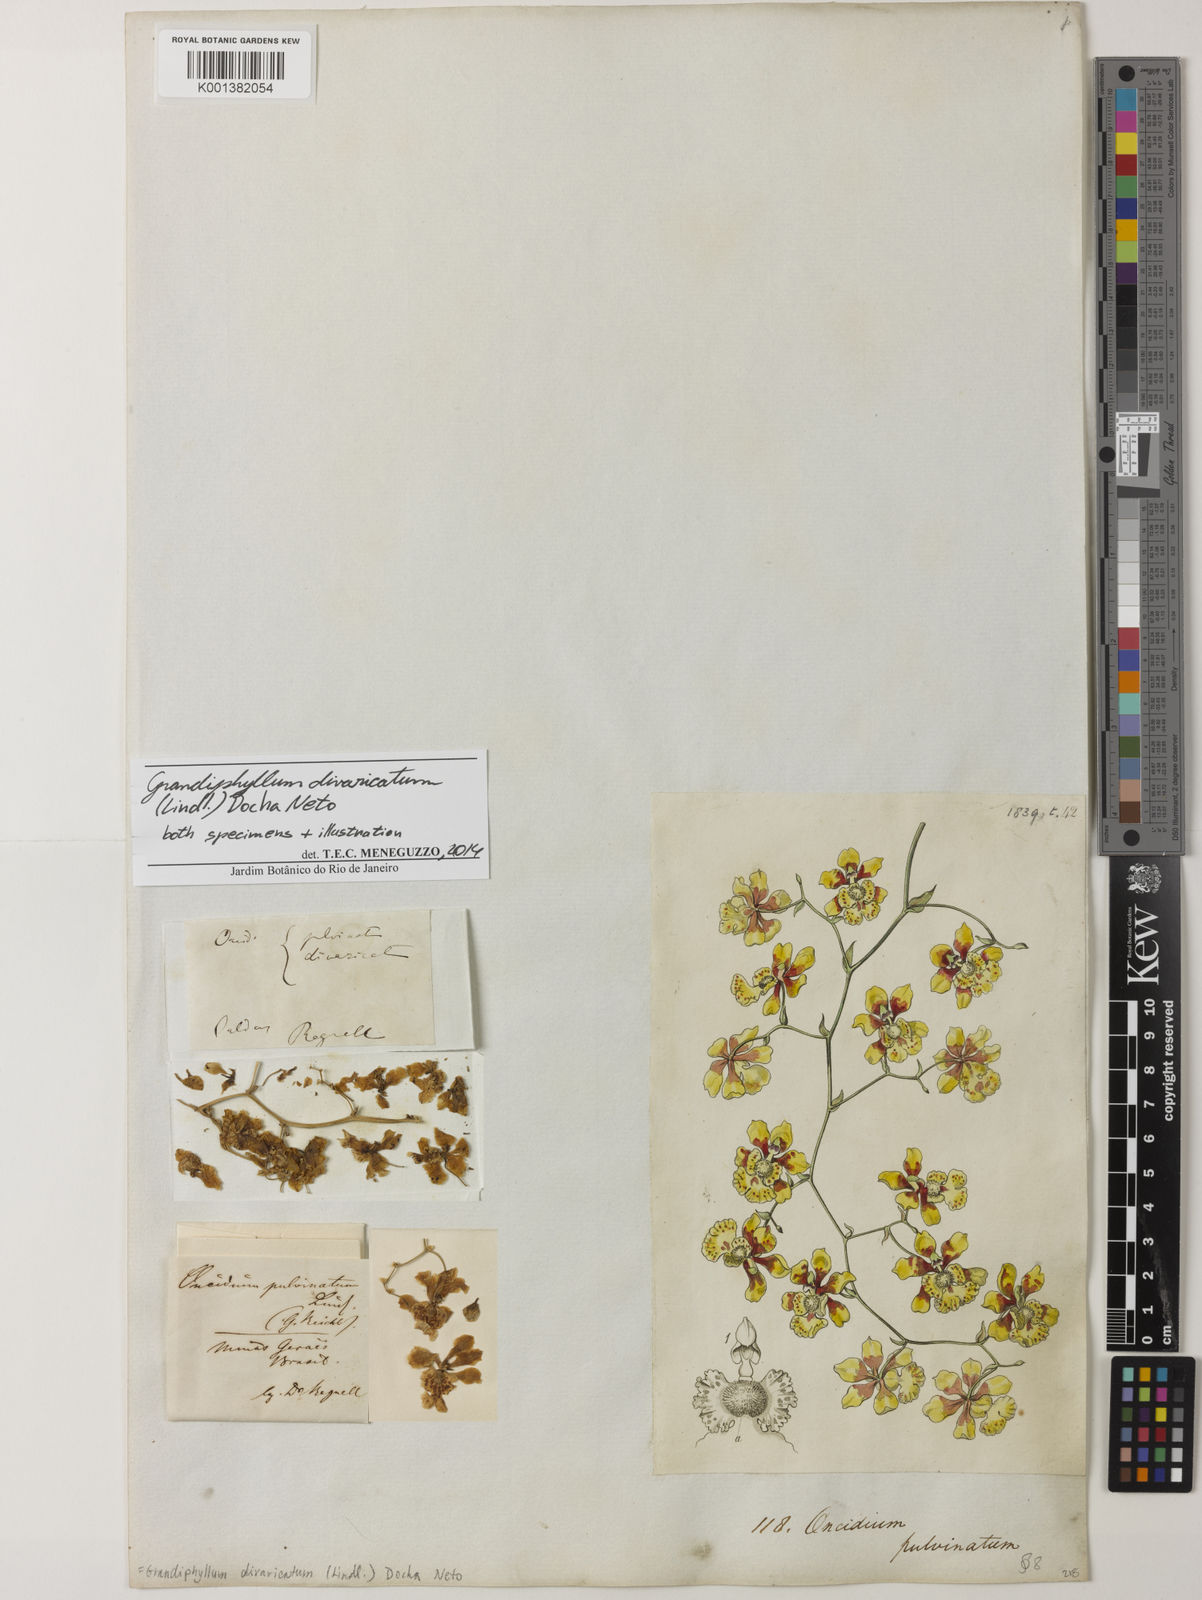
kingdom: Plantae
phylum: Tracheophyta
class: Liliopsida
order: Asparagales
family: Orchidaceae
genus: Grandiphyllum
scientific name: Grandiphyllum divaricatum
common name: Mule-ear orchid
